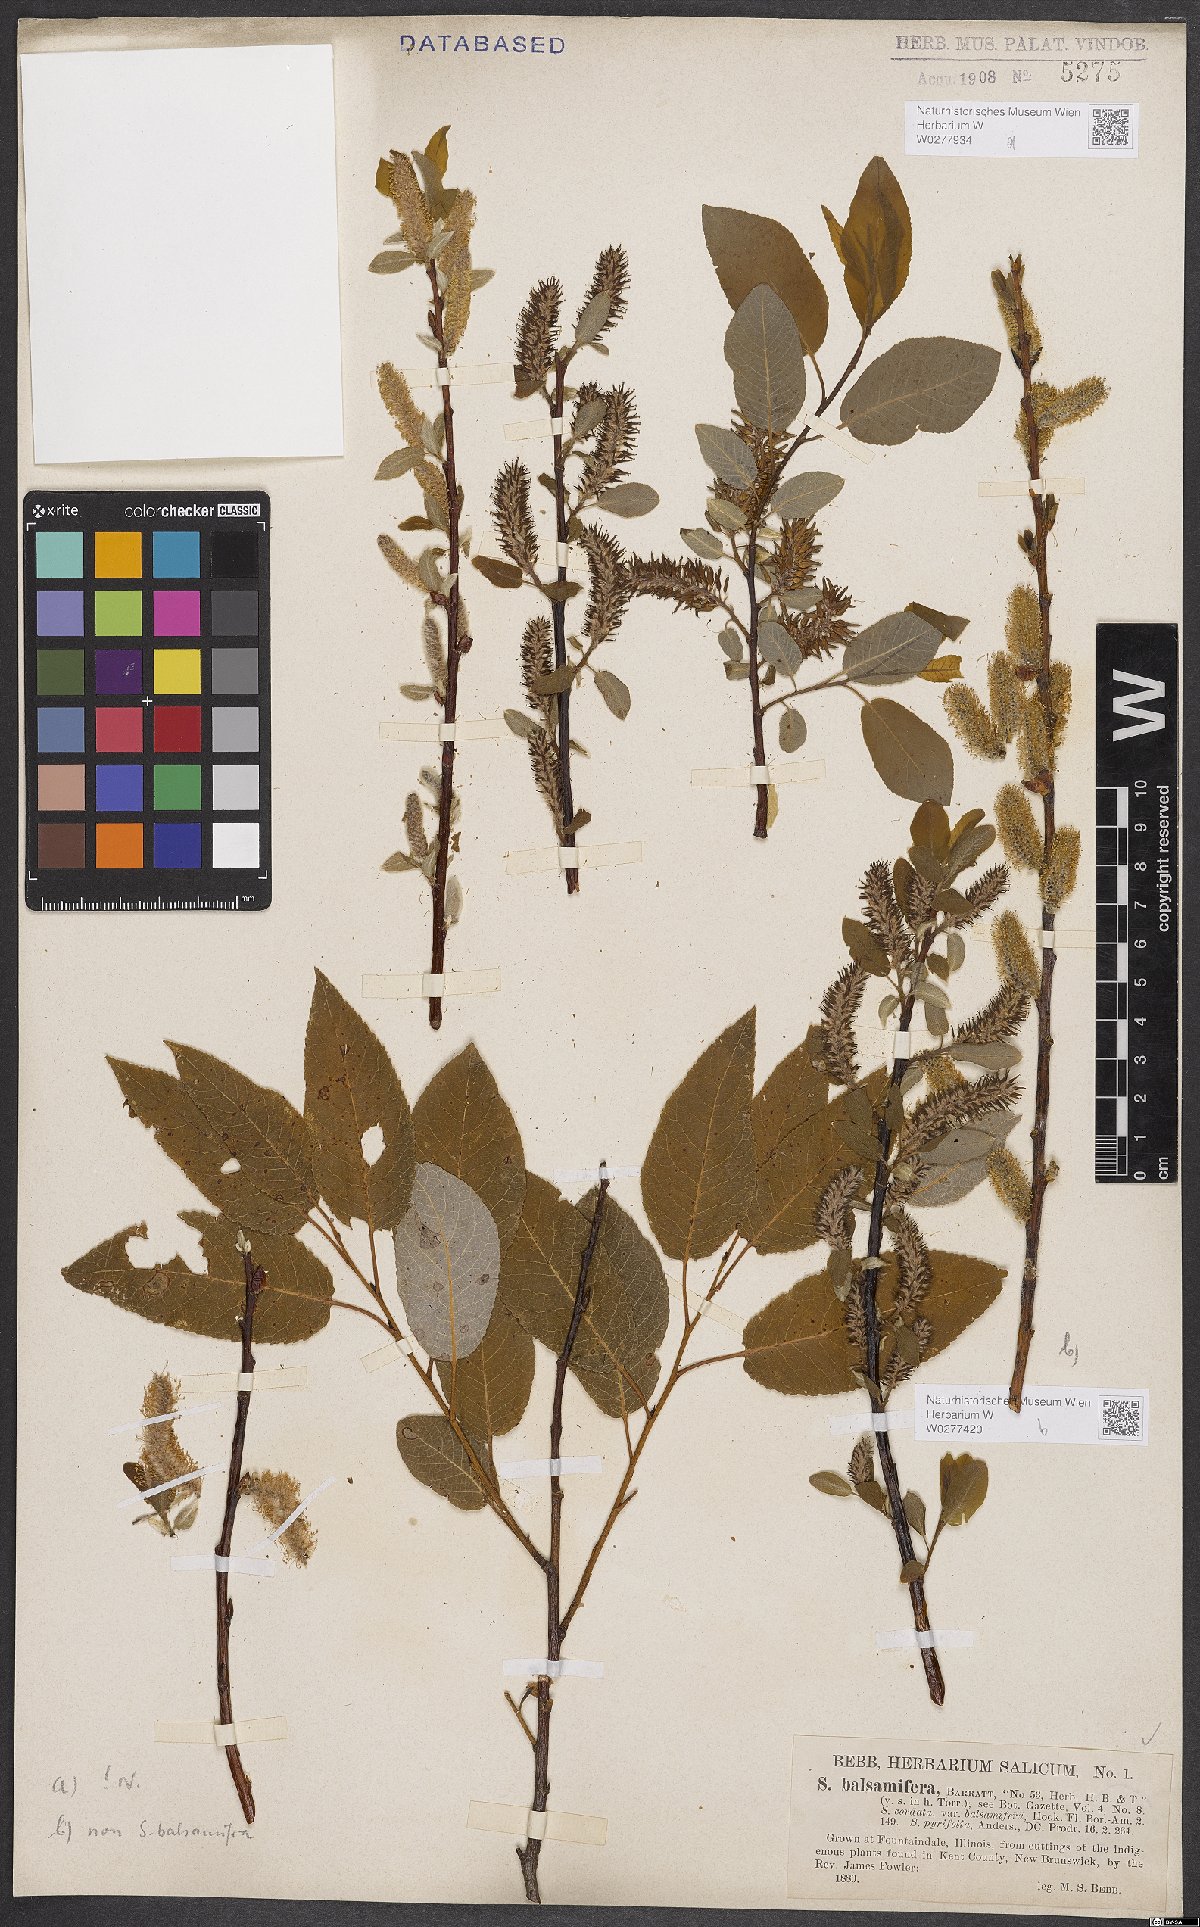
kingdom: Plantae
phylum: Tracheophyta
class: Magnoliopsida
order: Malpighiales
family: Salicaceae
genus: Salix
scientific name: Salix pyrifolia
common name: Balsam willow
